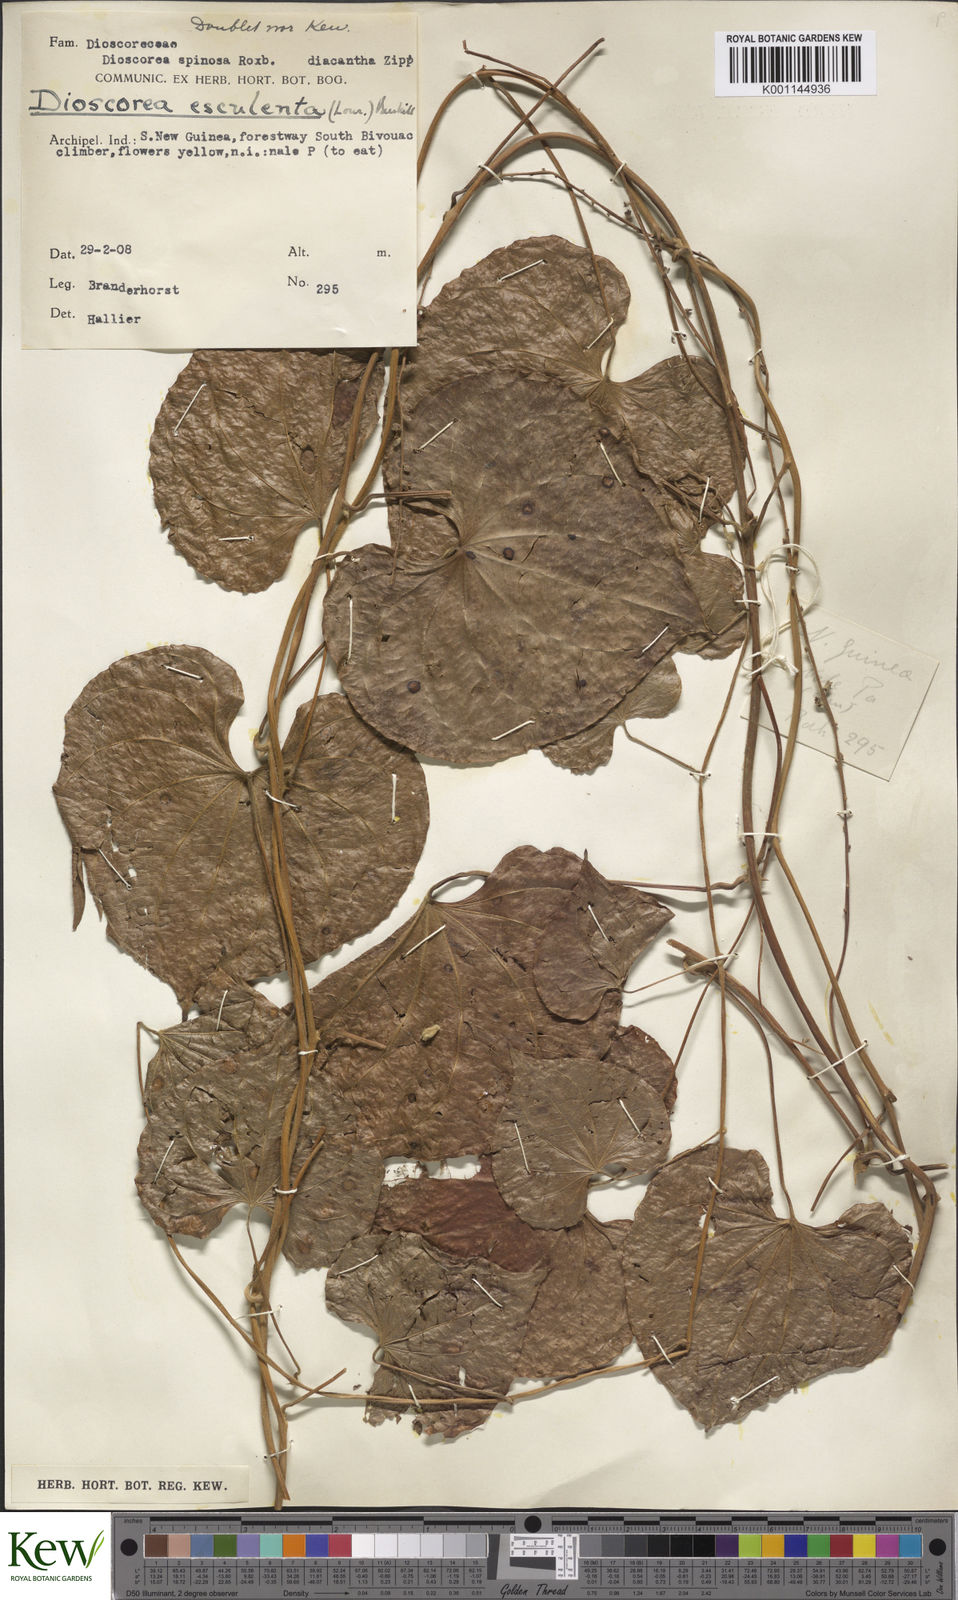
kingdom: Plantae
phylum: Tracheophyta
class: Liliopsida
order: Dioscoreales
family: Dioscoreaceae
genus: Dioscorea
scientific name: Dioscorea esculenta
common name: Chinese yam
